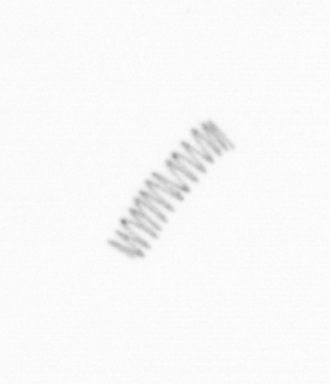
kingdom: Chromista
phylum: Ochrophyta
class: Bacillariophyceae
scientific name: Bacillariophyceae
